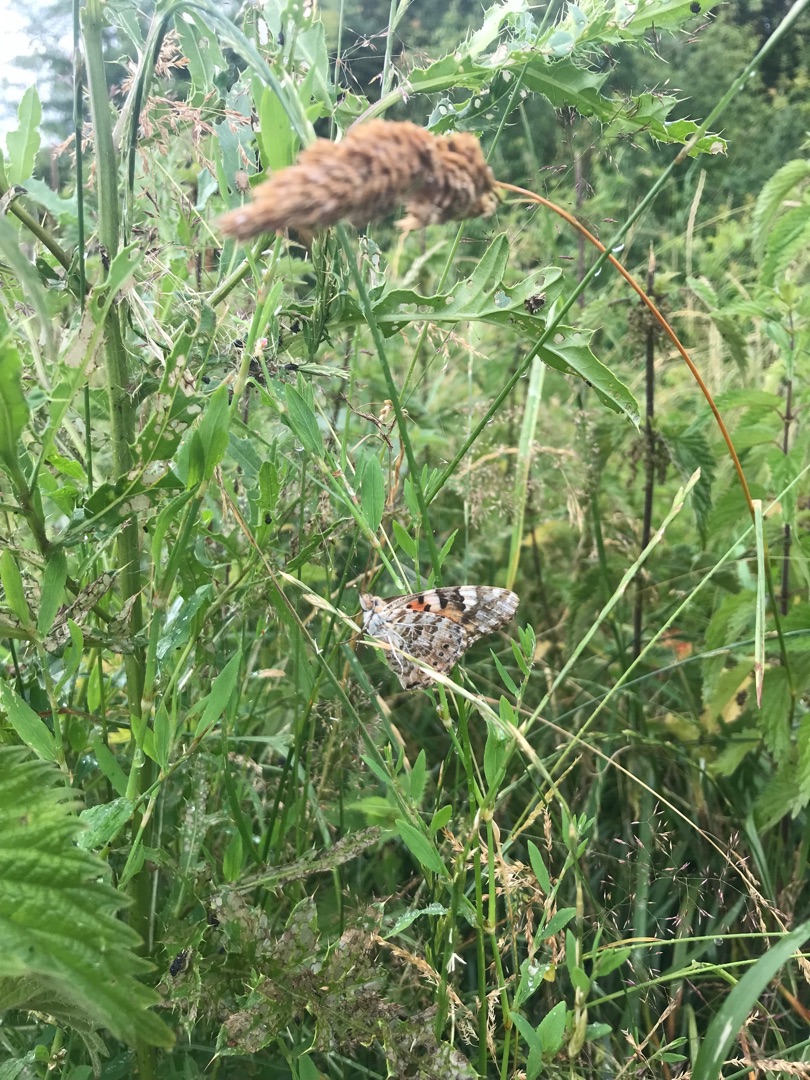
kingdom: Animalia
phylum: Arthropoda
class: Insecta
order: Lepidoptera
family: Nymphalidae
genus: Vanessa
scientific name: Vanessa cardui
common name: Tidselsommerfugl
